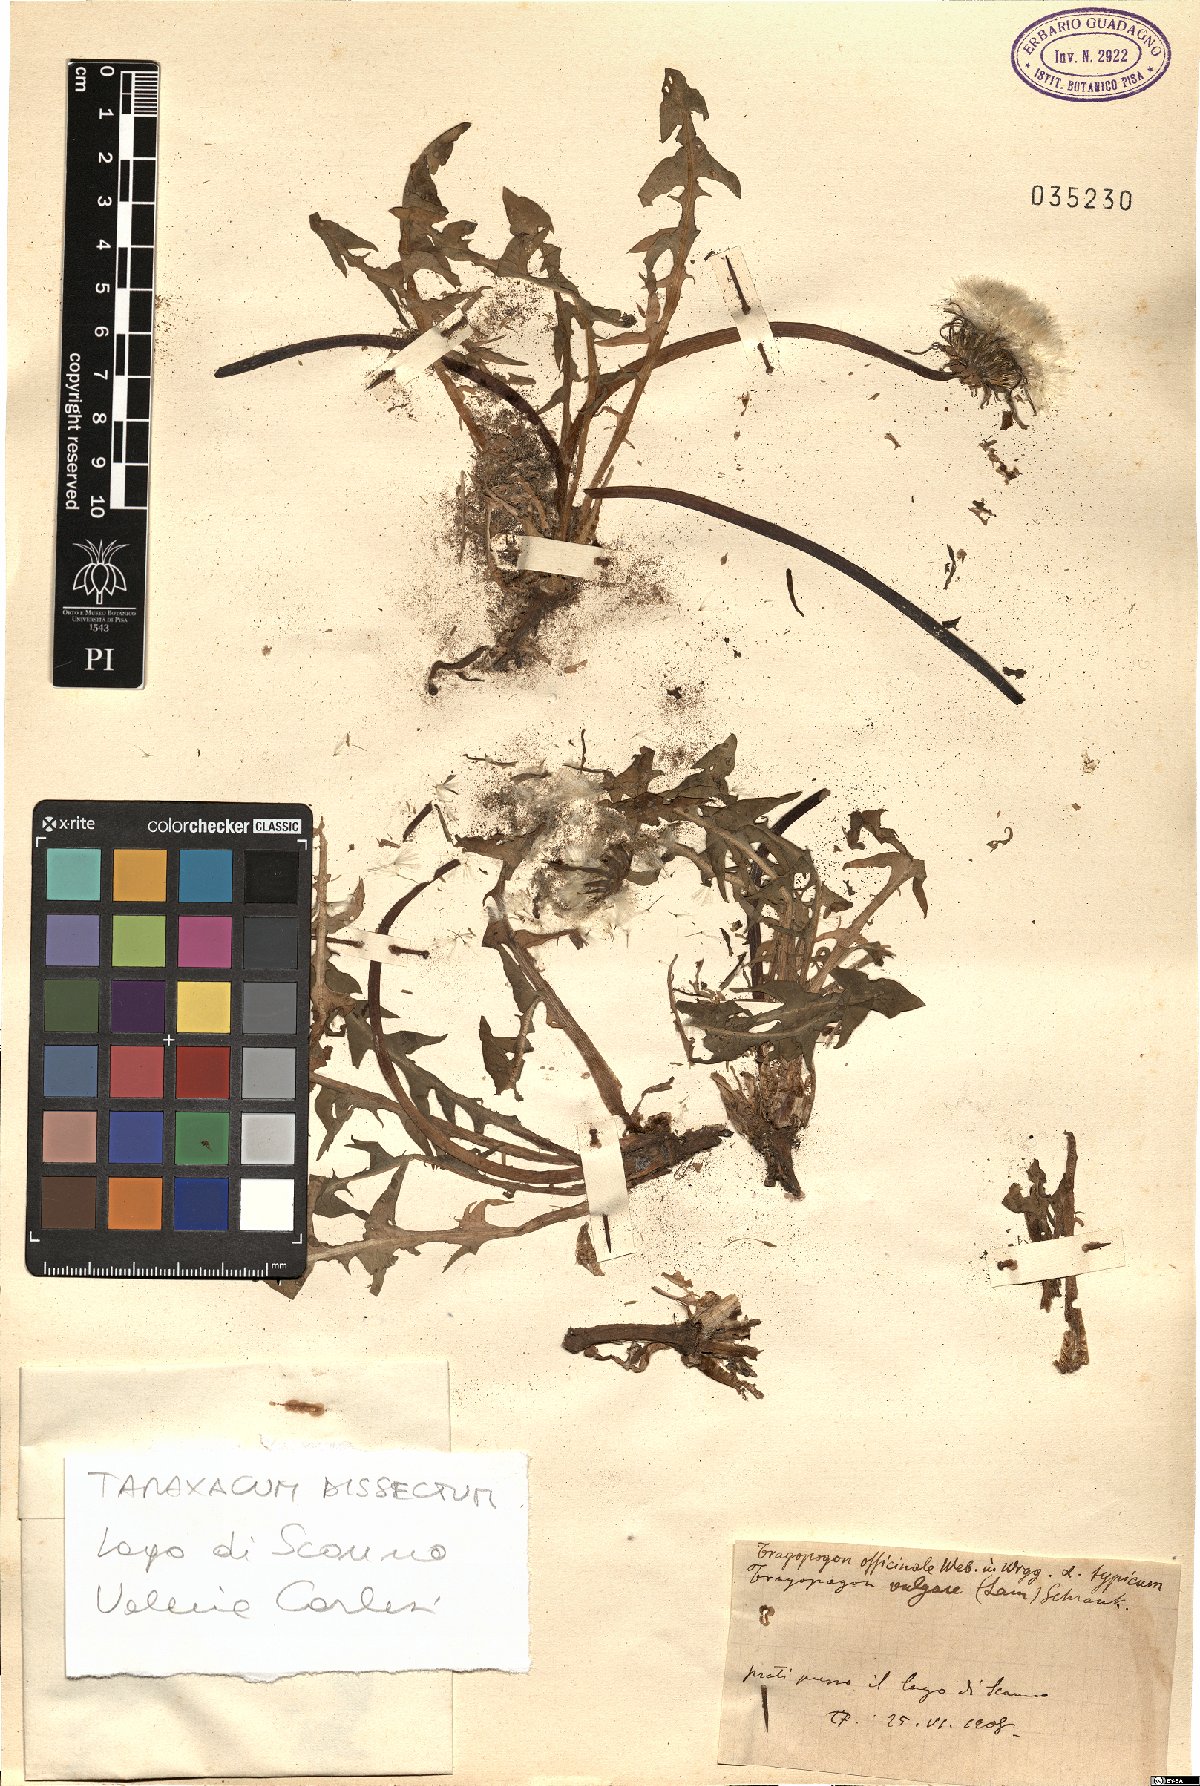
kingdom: Plantae
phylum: Tracheophyta
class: Magnoliopsida
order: Asterales
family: Asteraceae
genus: Taraxacum
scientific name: Taraxacum dissectum
